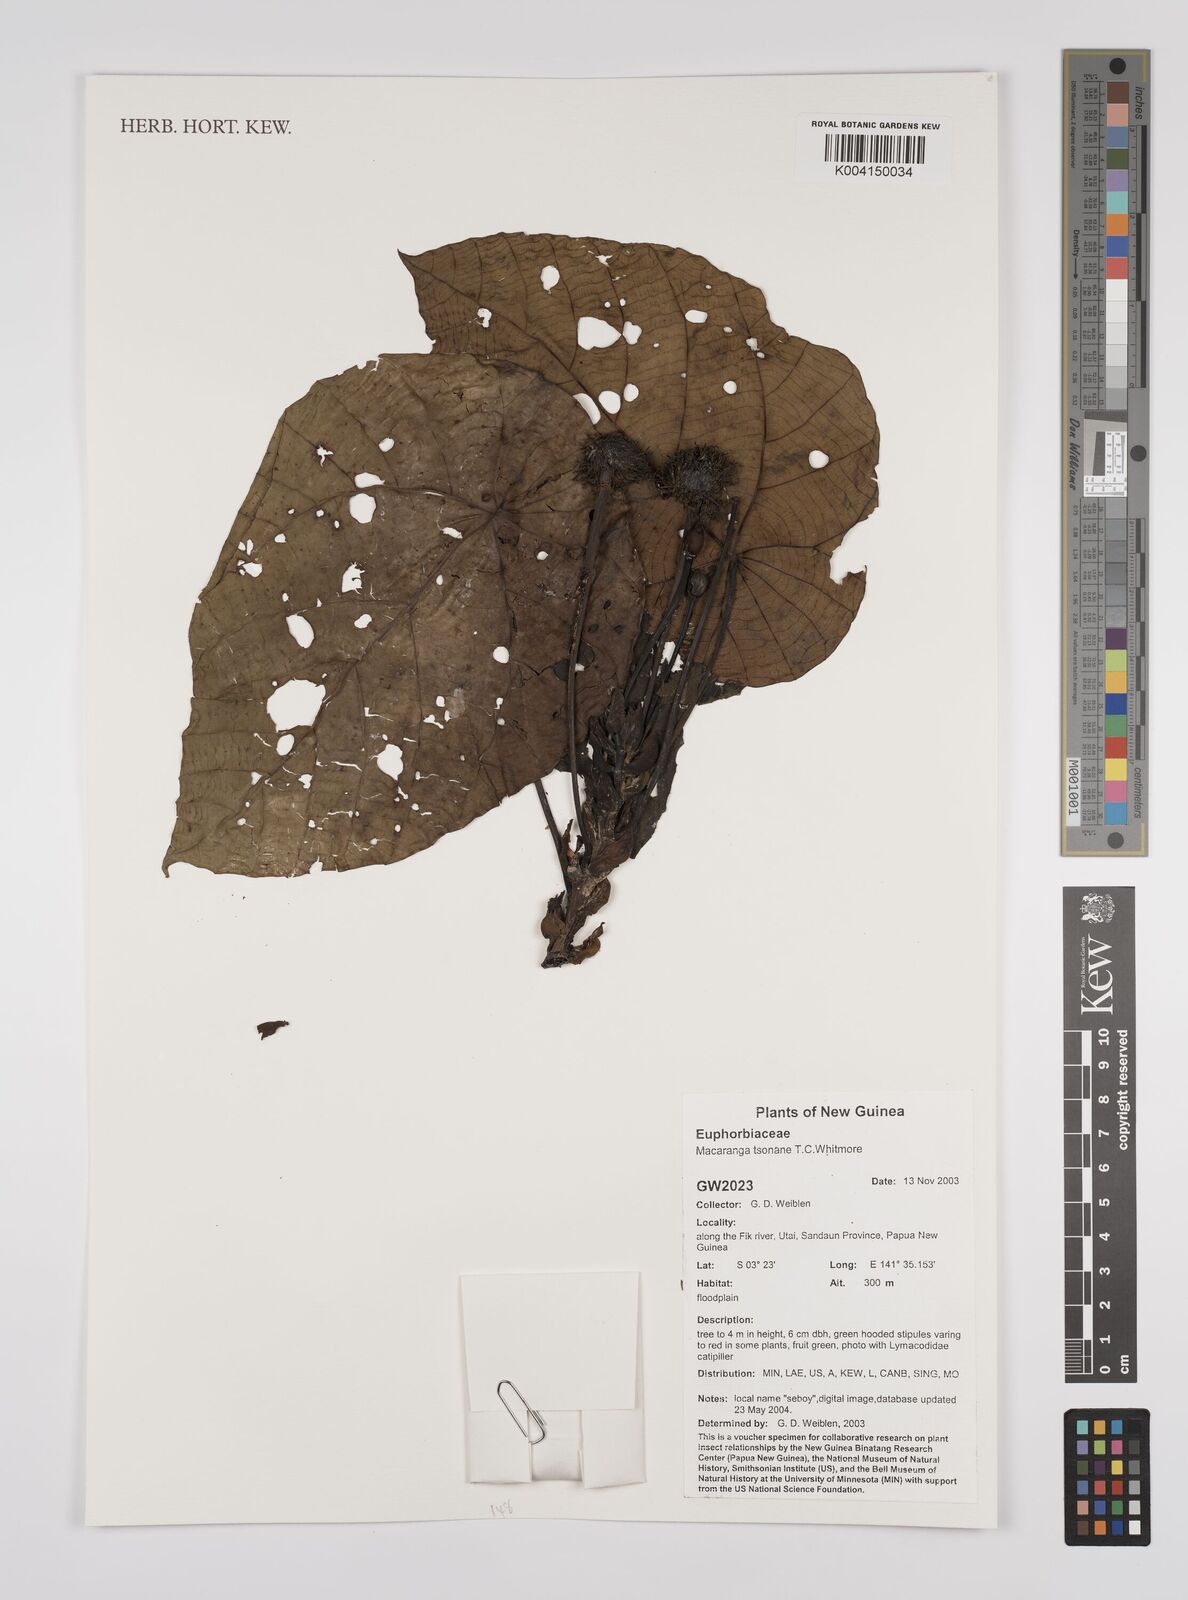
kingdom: Plantae
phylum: Tracheophyta
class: Magnoliopsida
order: Malpighiales
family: Euphorbiaceae
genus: Macaranga
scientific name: Macaranga tsonane
